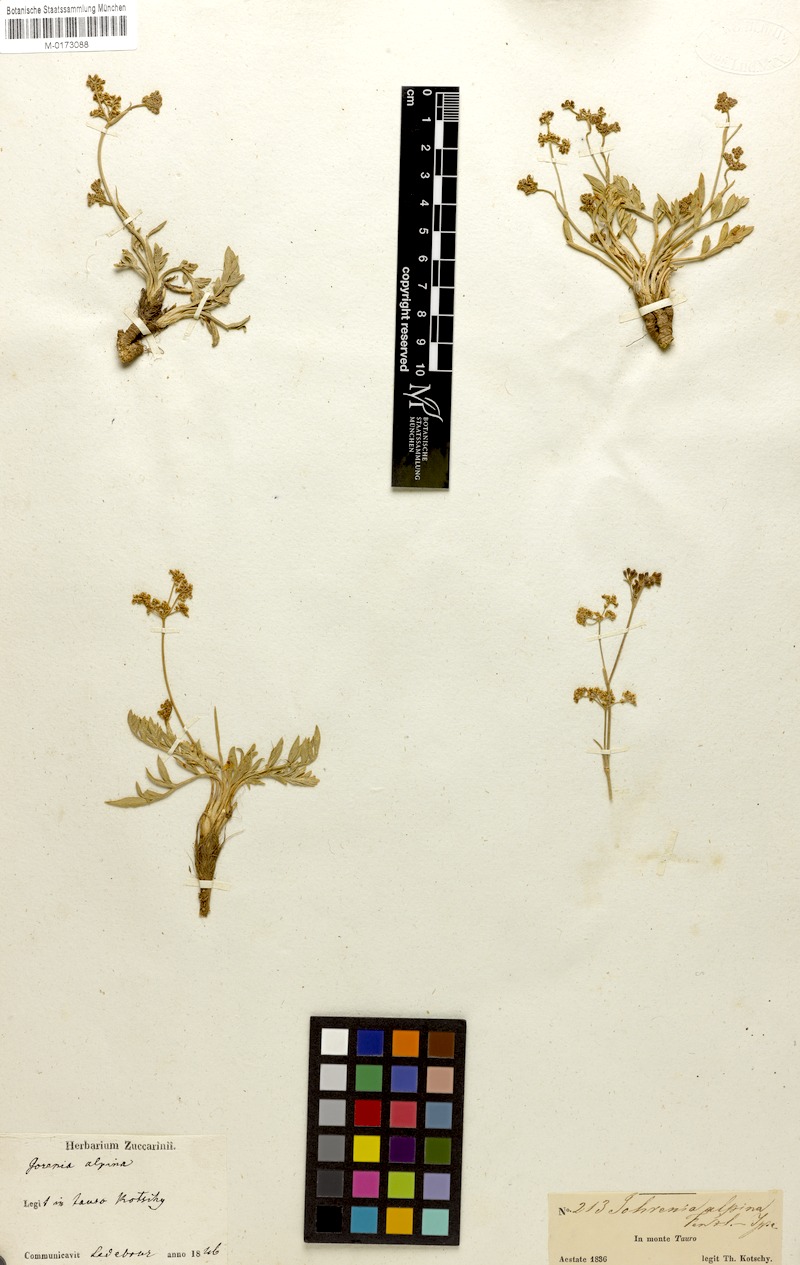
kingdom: Plantae
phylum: Tracheophyta
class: Magnoliopsida
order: Apiales
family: Apiaceae
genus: Dichoropetalum
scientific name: Dichoropetalum alpinum
